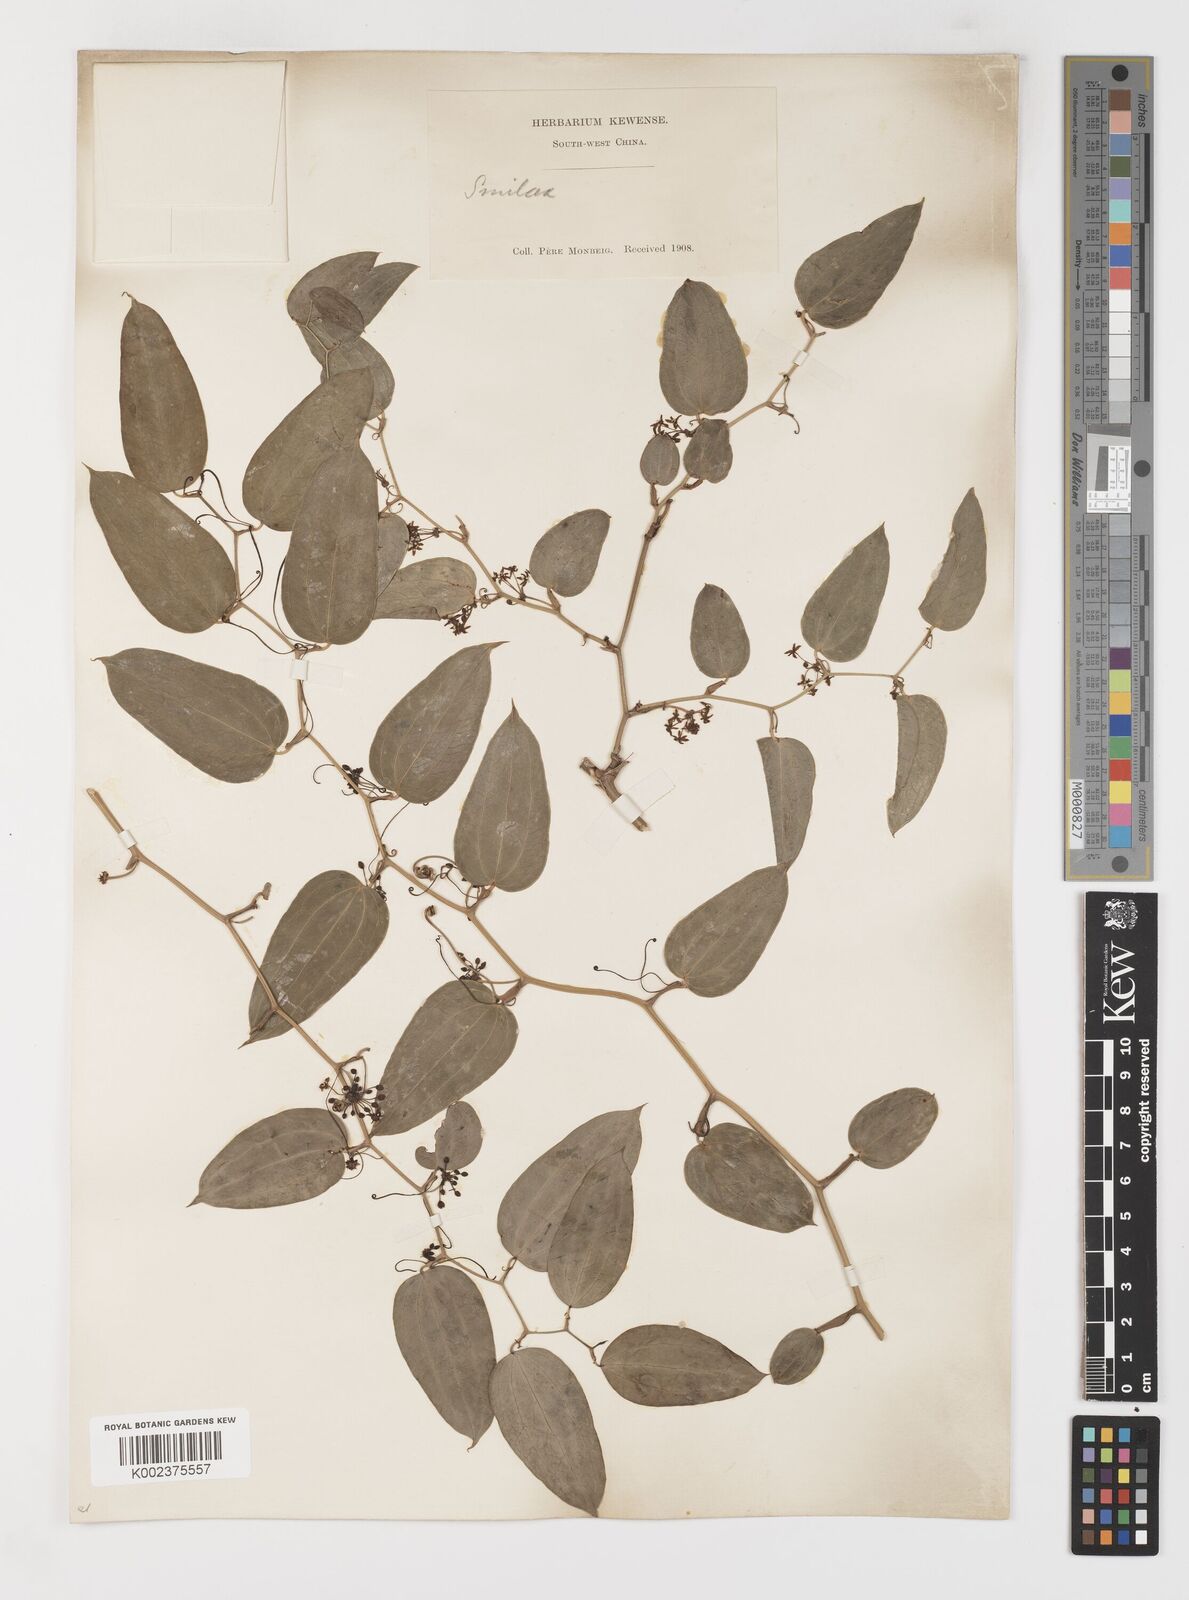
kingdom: Plantae
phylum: Tracheophyta
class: Liliopsida
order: Liliales
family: Smilacaceae
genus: Smilax
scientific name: Smilax lanceifolia
